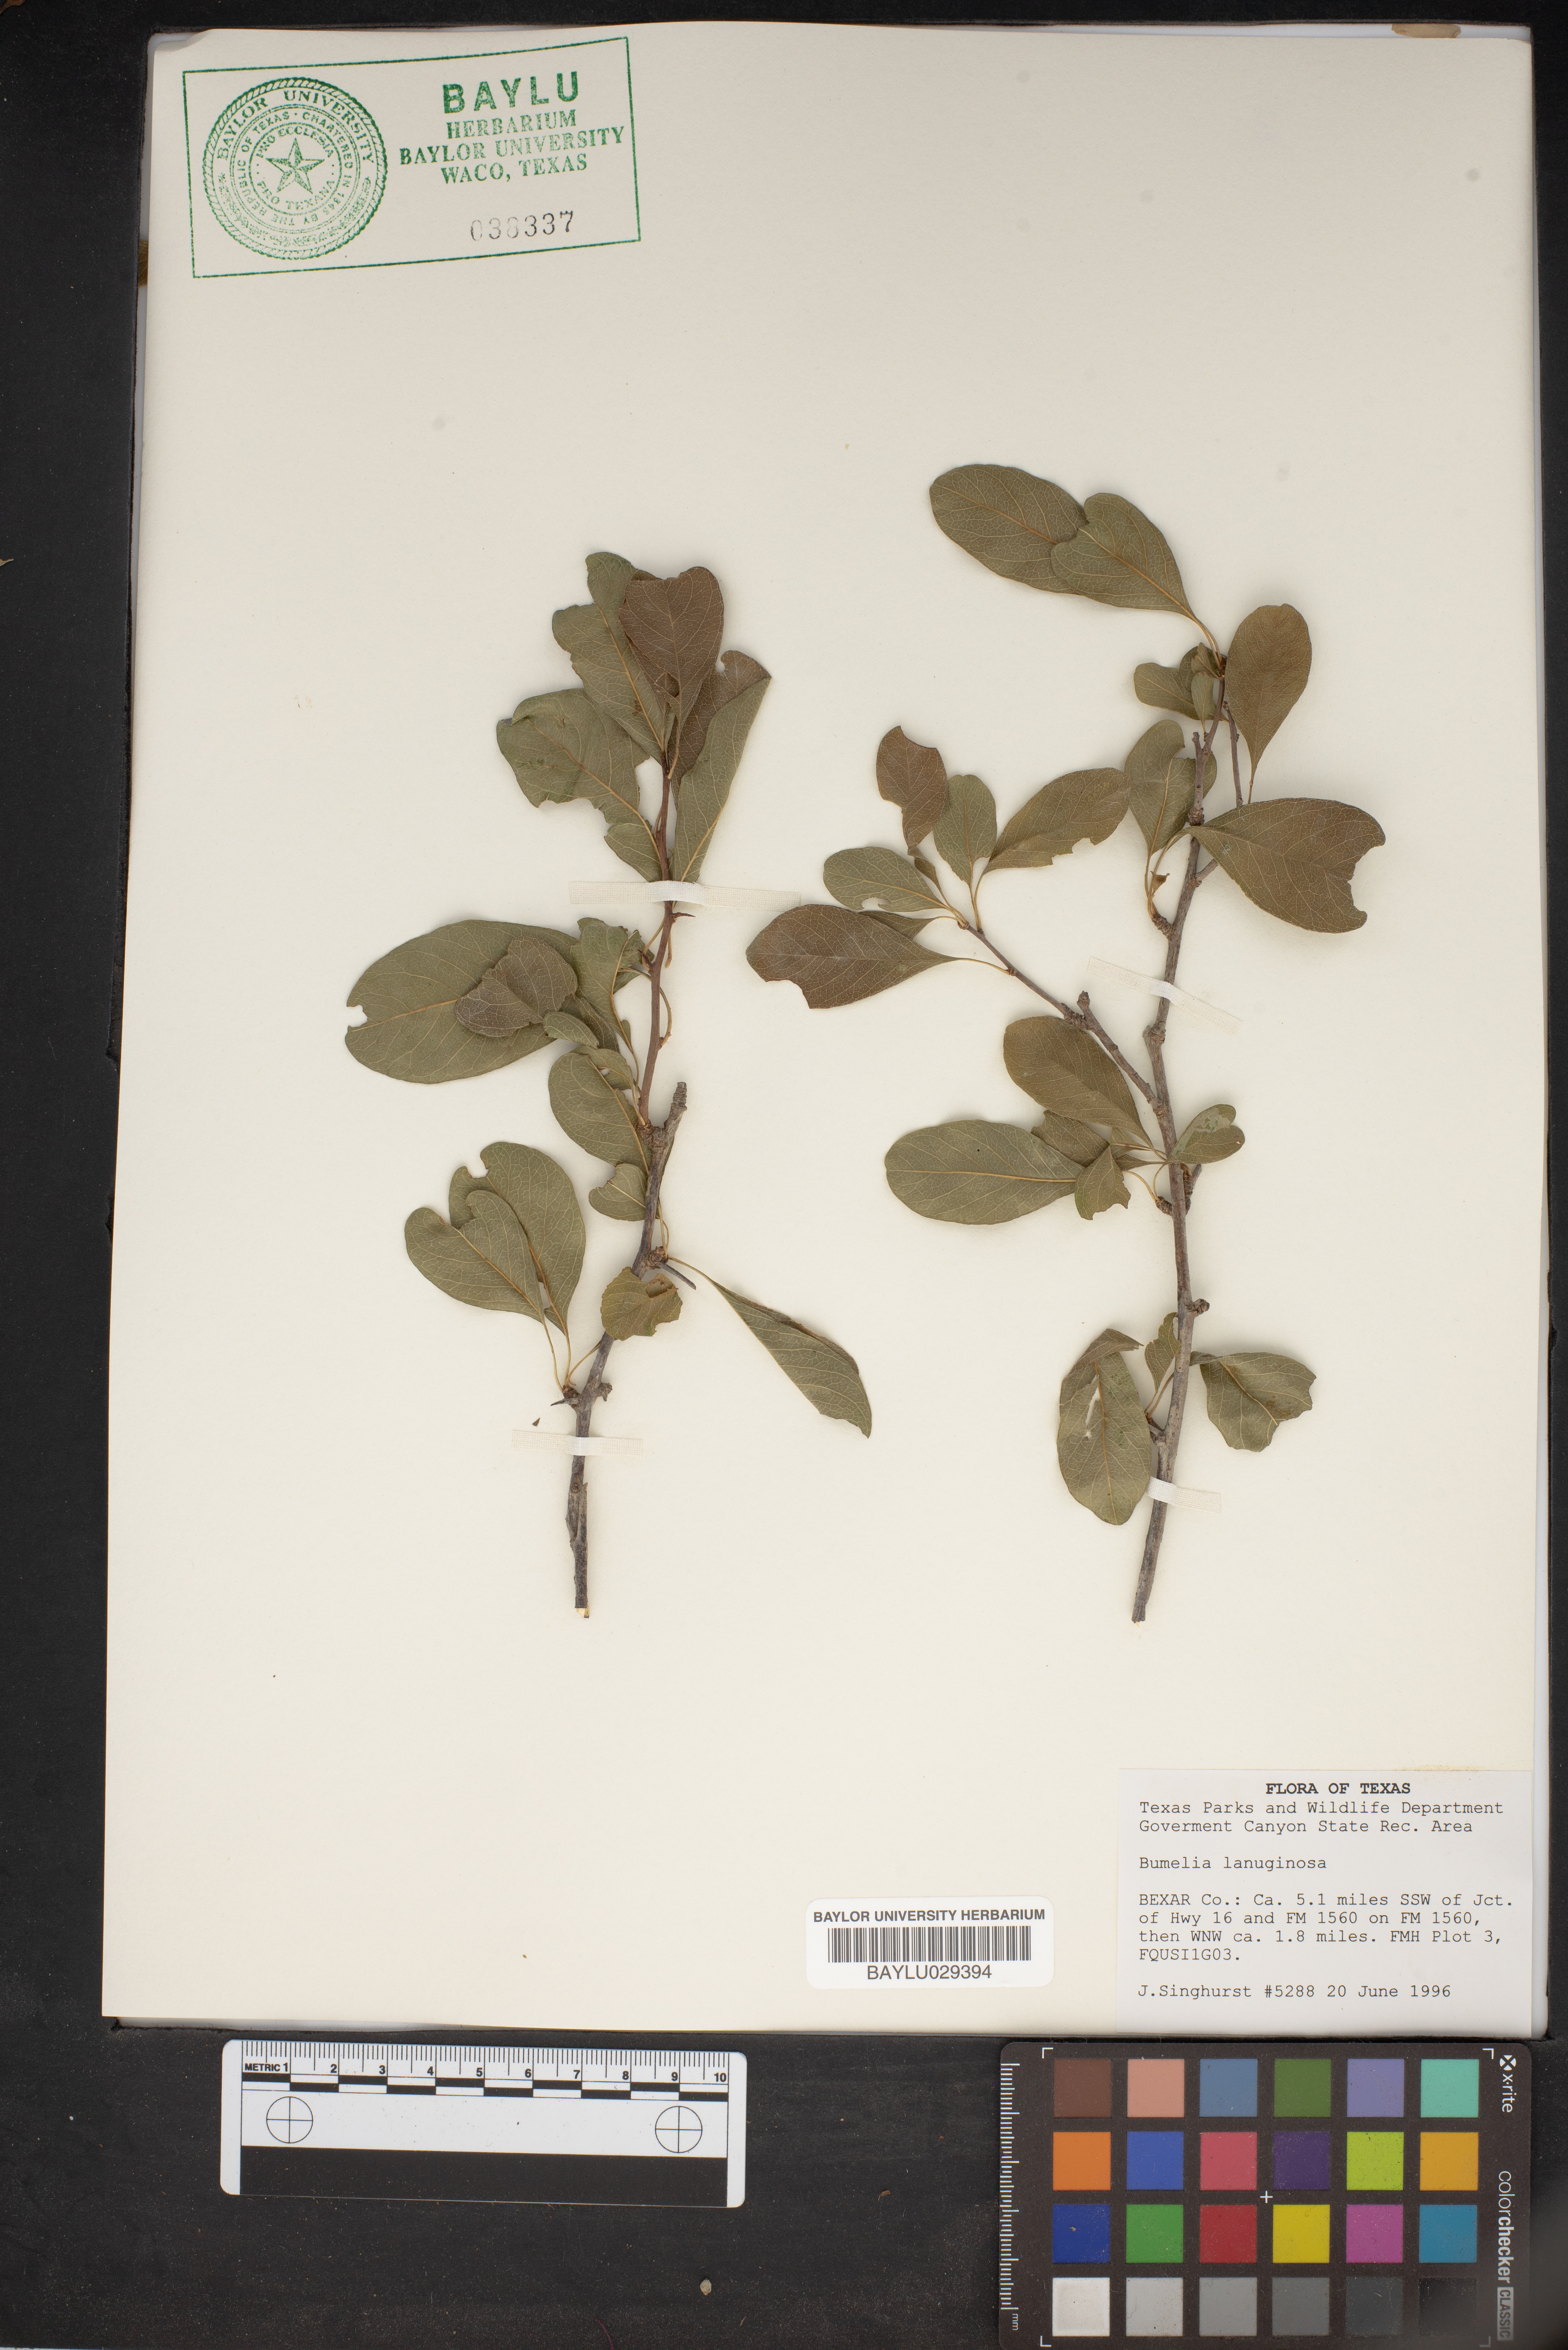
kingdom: Plantae
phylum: Tracheophyta
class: Magnoliopsida
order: Ericales
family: Sapotaceae
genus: Sideroxylon
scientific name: Sideroxylon lanuginosum
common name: Chittamwood
